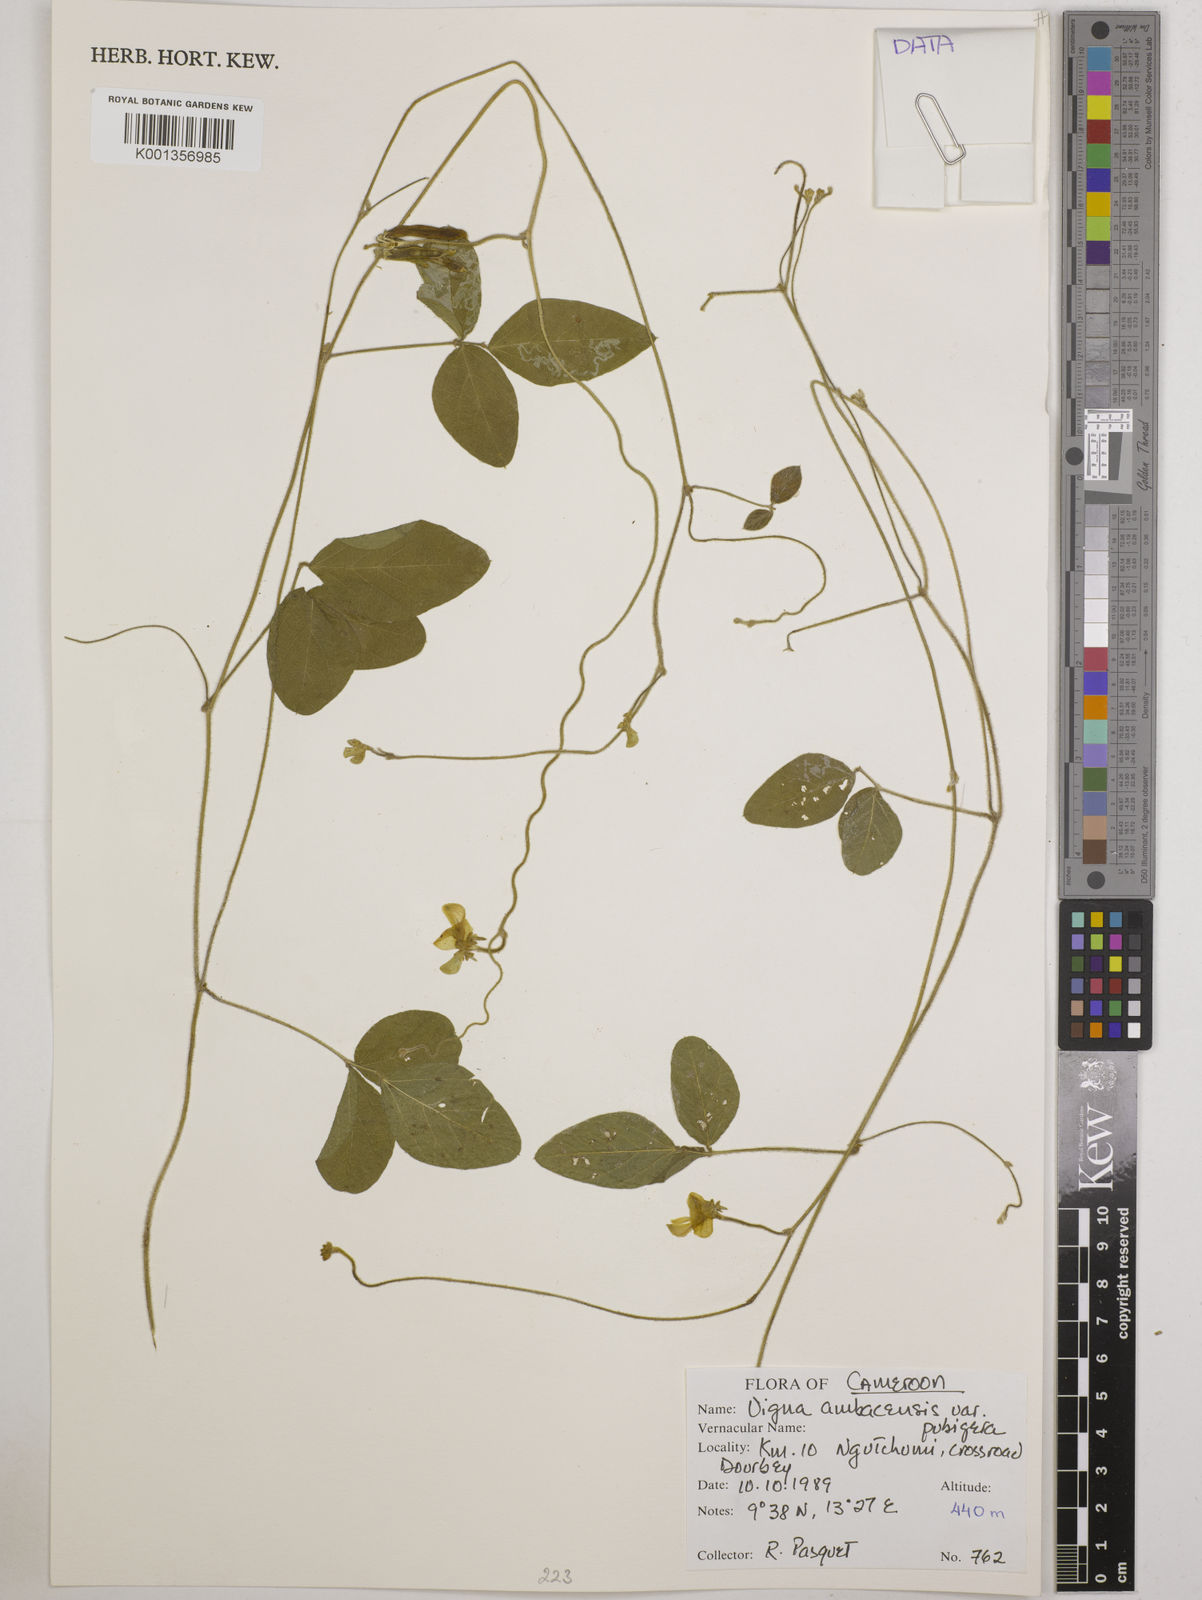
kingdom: Plantae
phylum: Tracheophyta
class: Magnoliopsida
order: Fabales
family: Fabaceae
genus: Vigna
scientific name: Vigna pubigera
